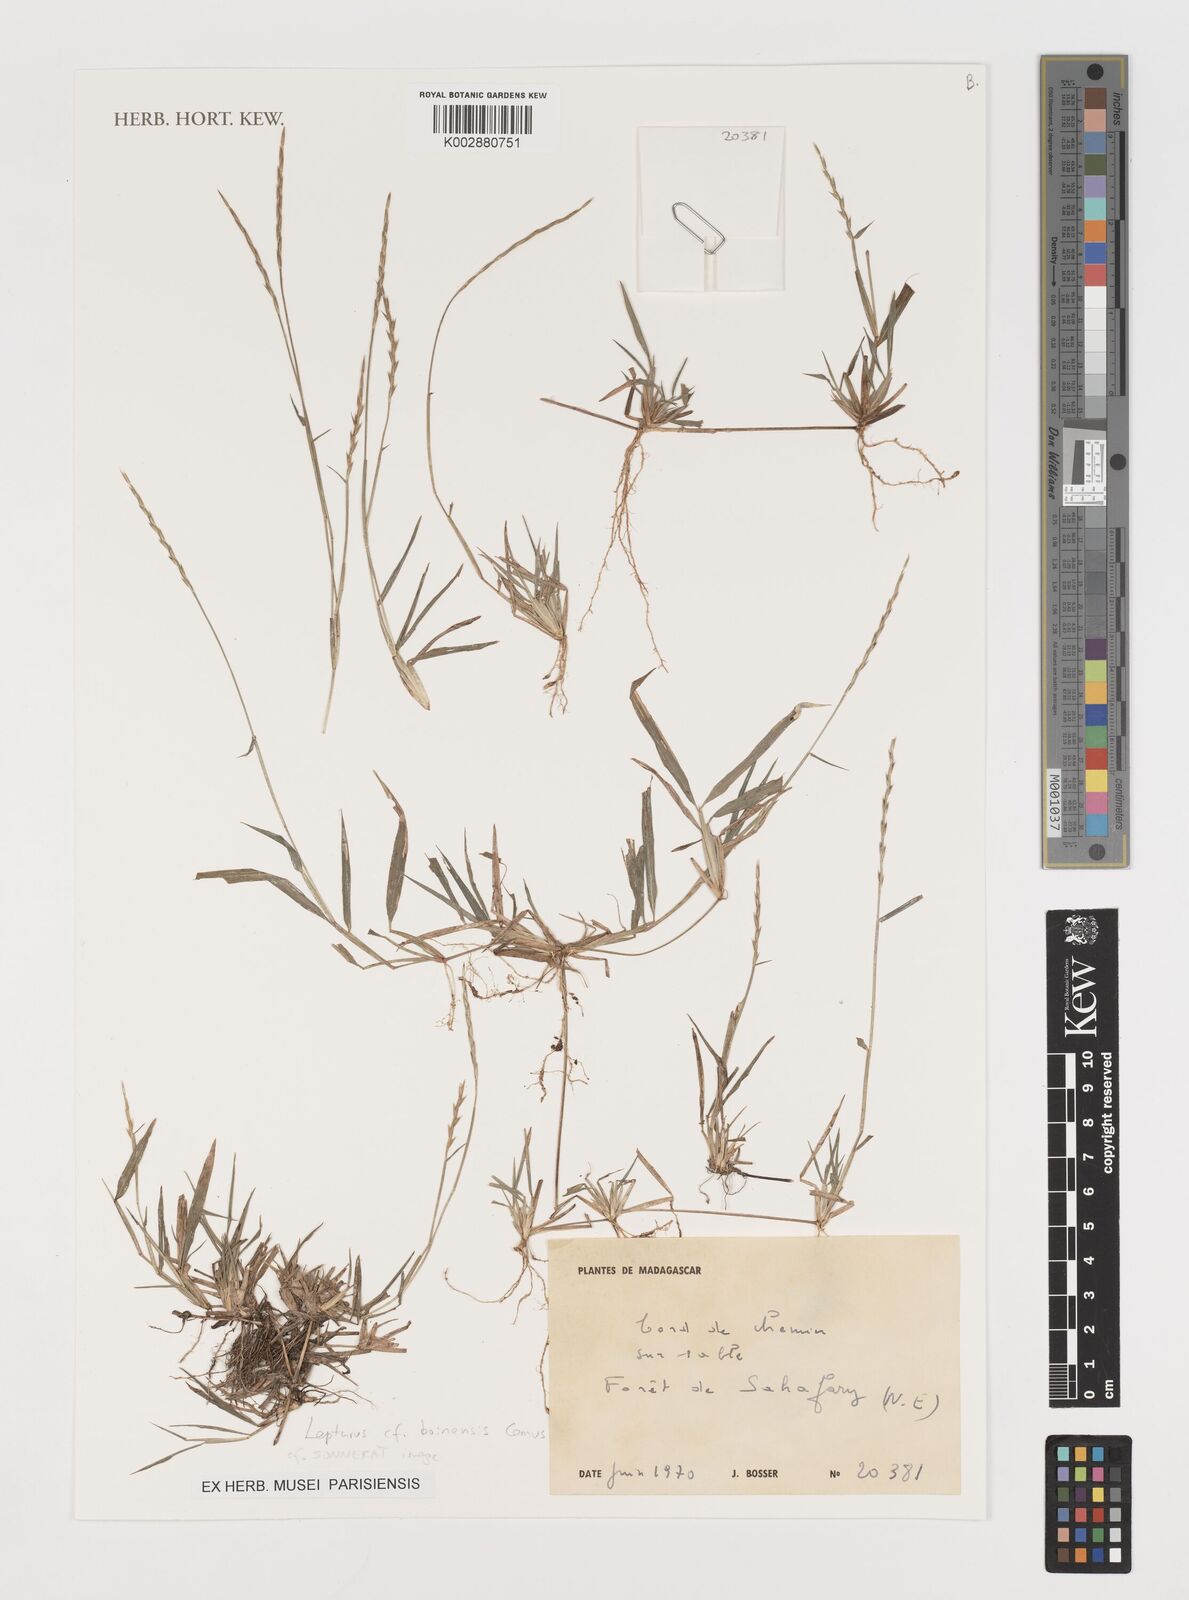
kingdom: Plantae
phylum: Tracheophyta
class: Liliopsida
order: Poales
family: Poaceae
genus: Lepturus
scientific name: Lepturus boinensis
